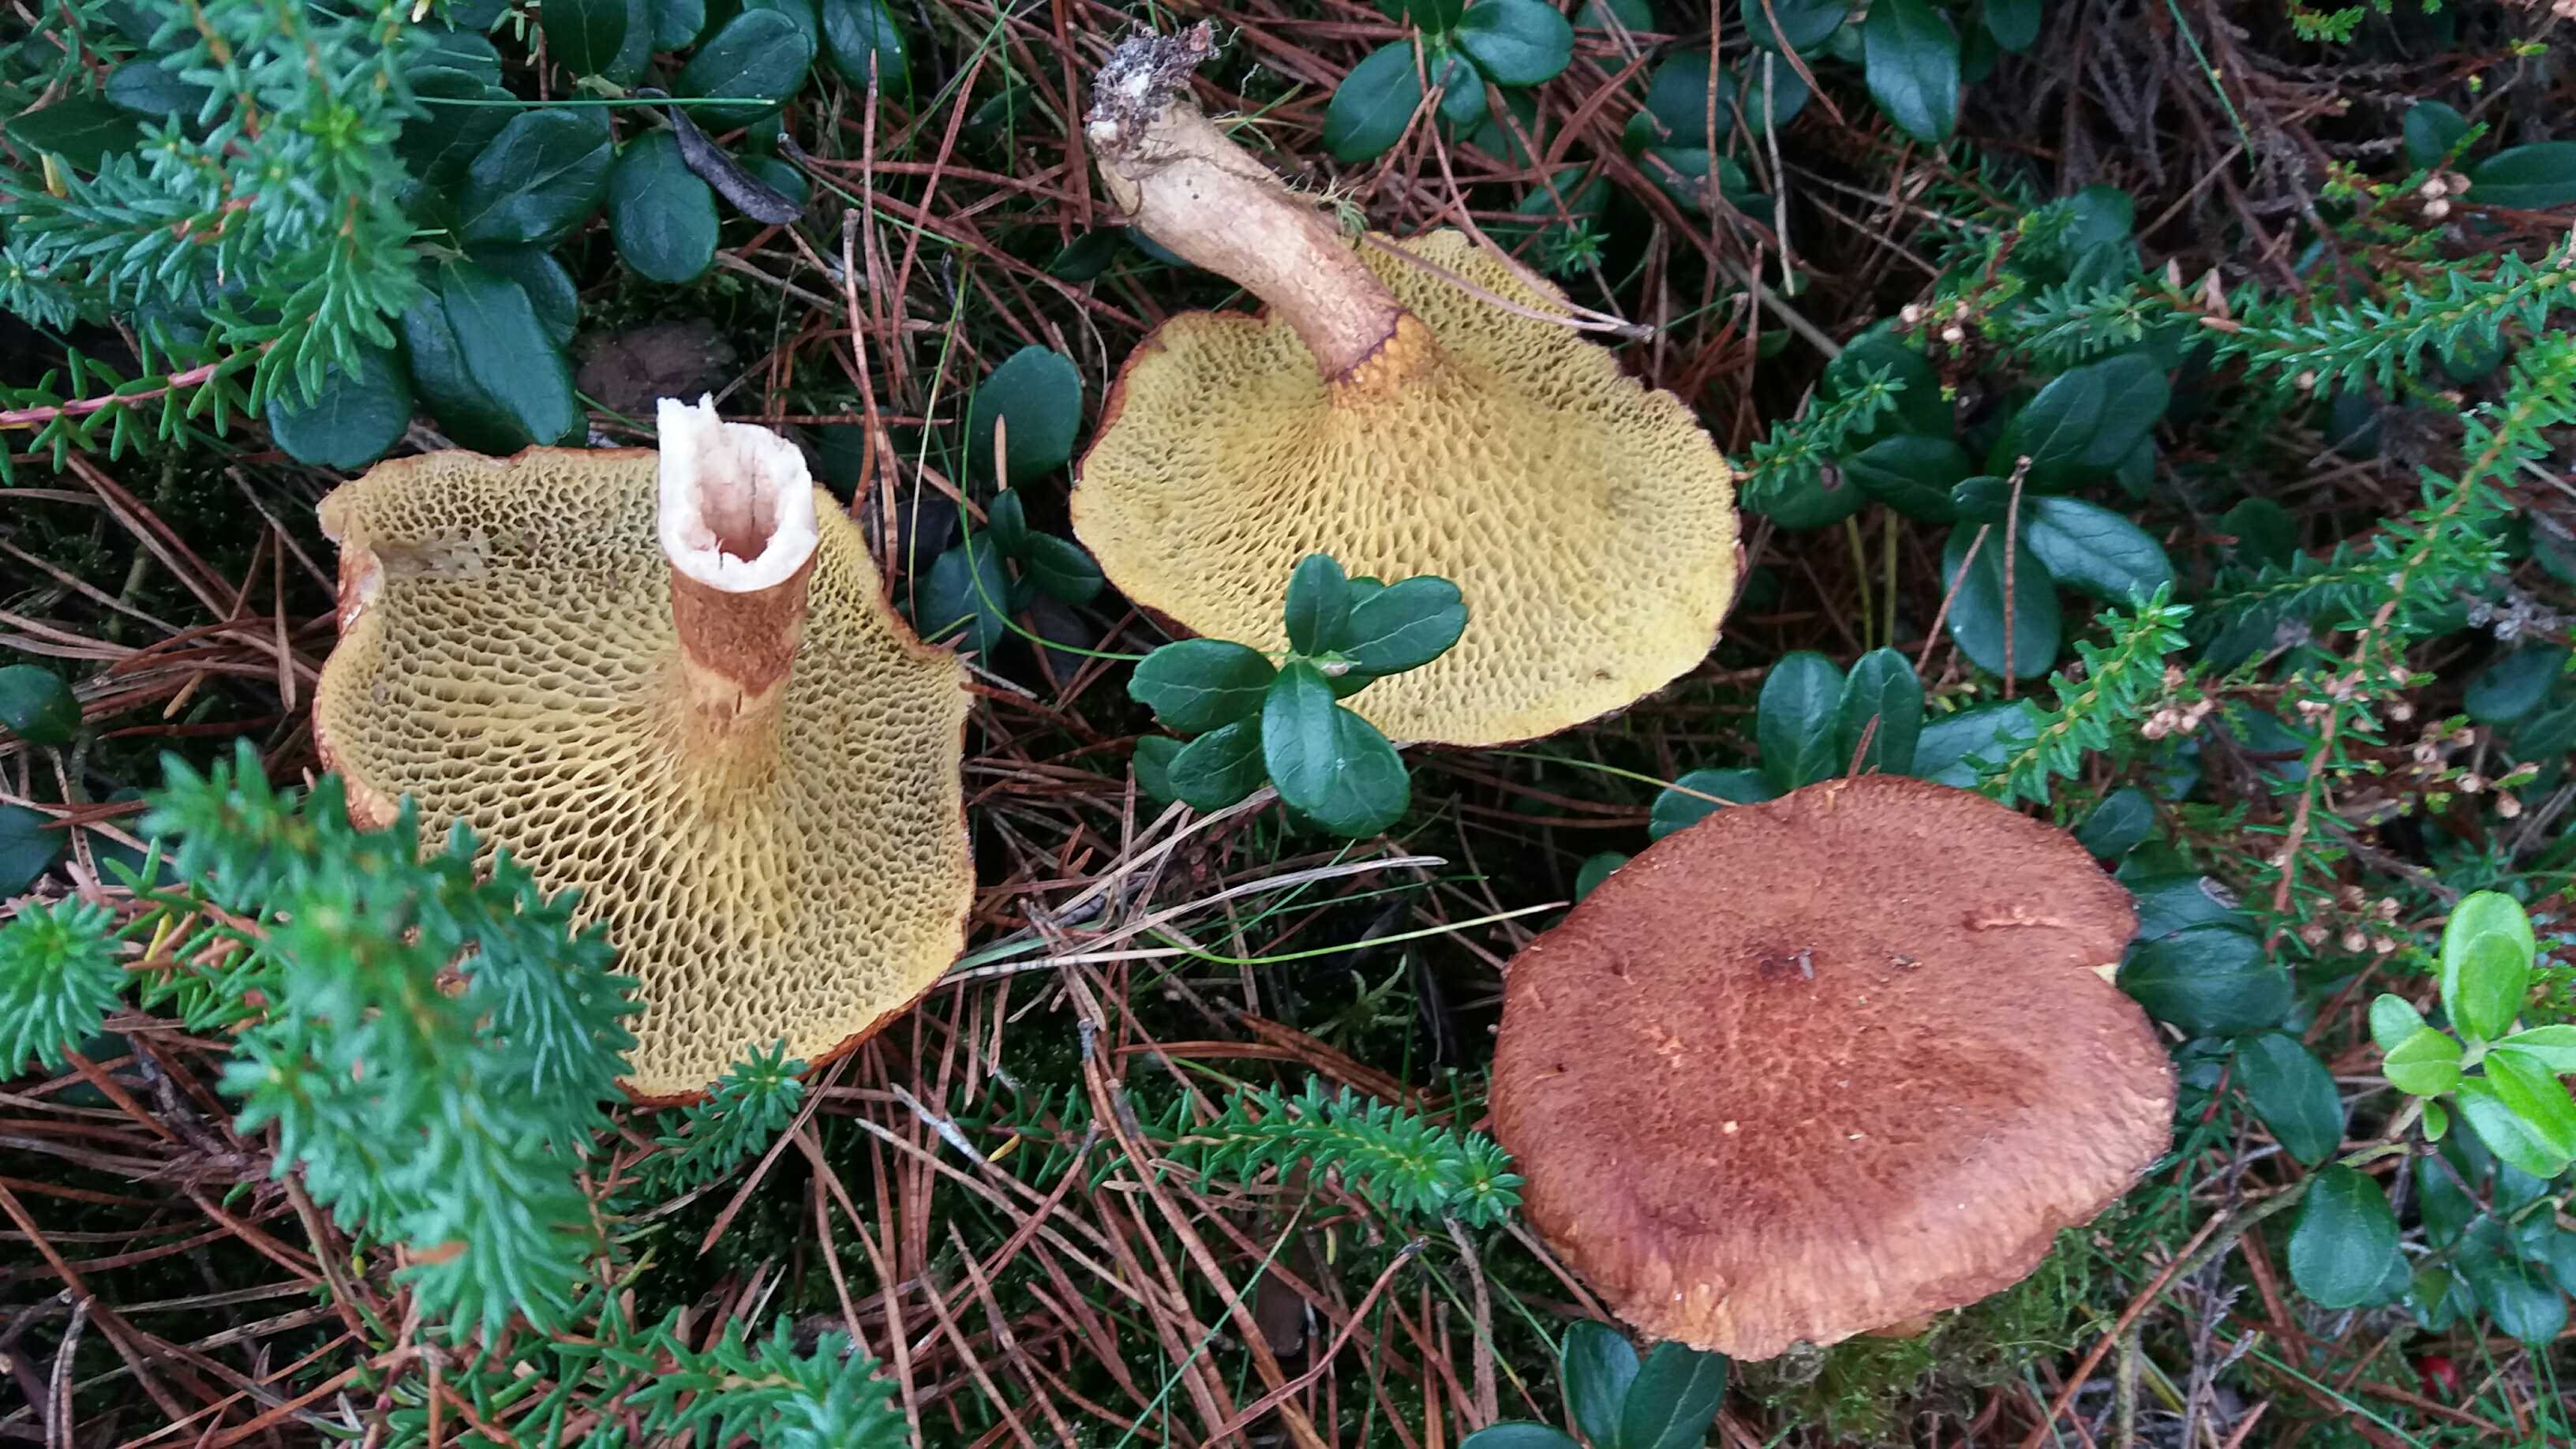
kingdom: Fungi
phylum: Basidiomycota
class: Agaricomycetes
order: Boletales
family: Suillaceae
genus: Suillus
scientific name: Suillus cavipes
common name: hulstokket slimrørhat
